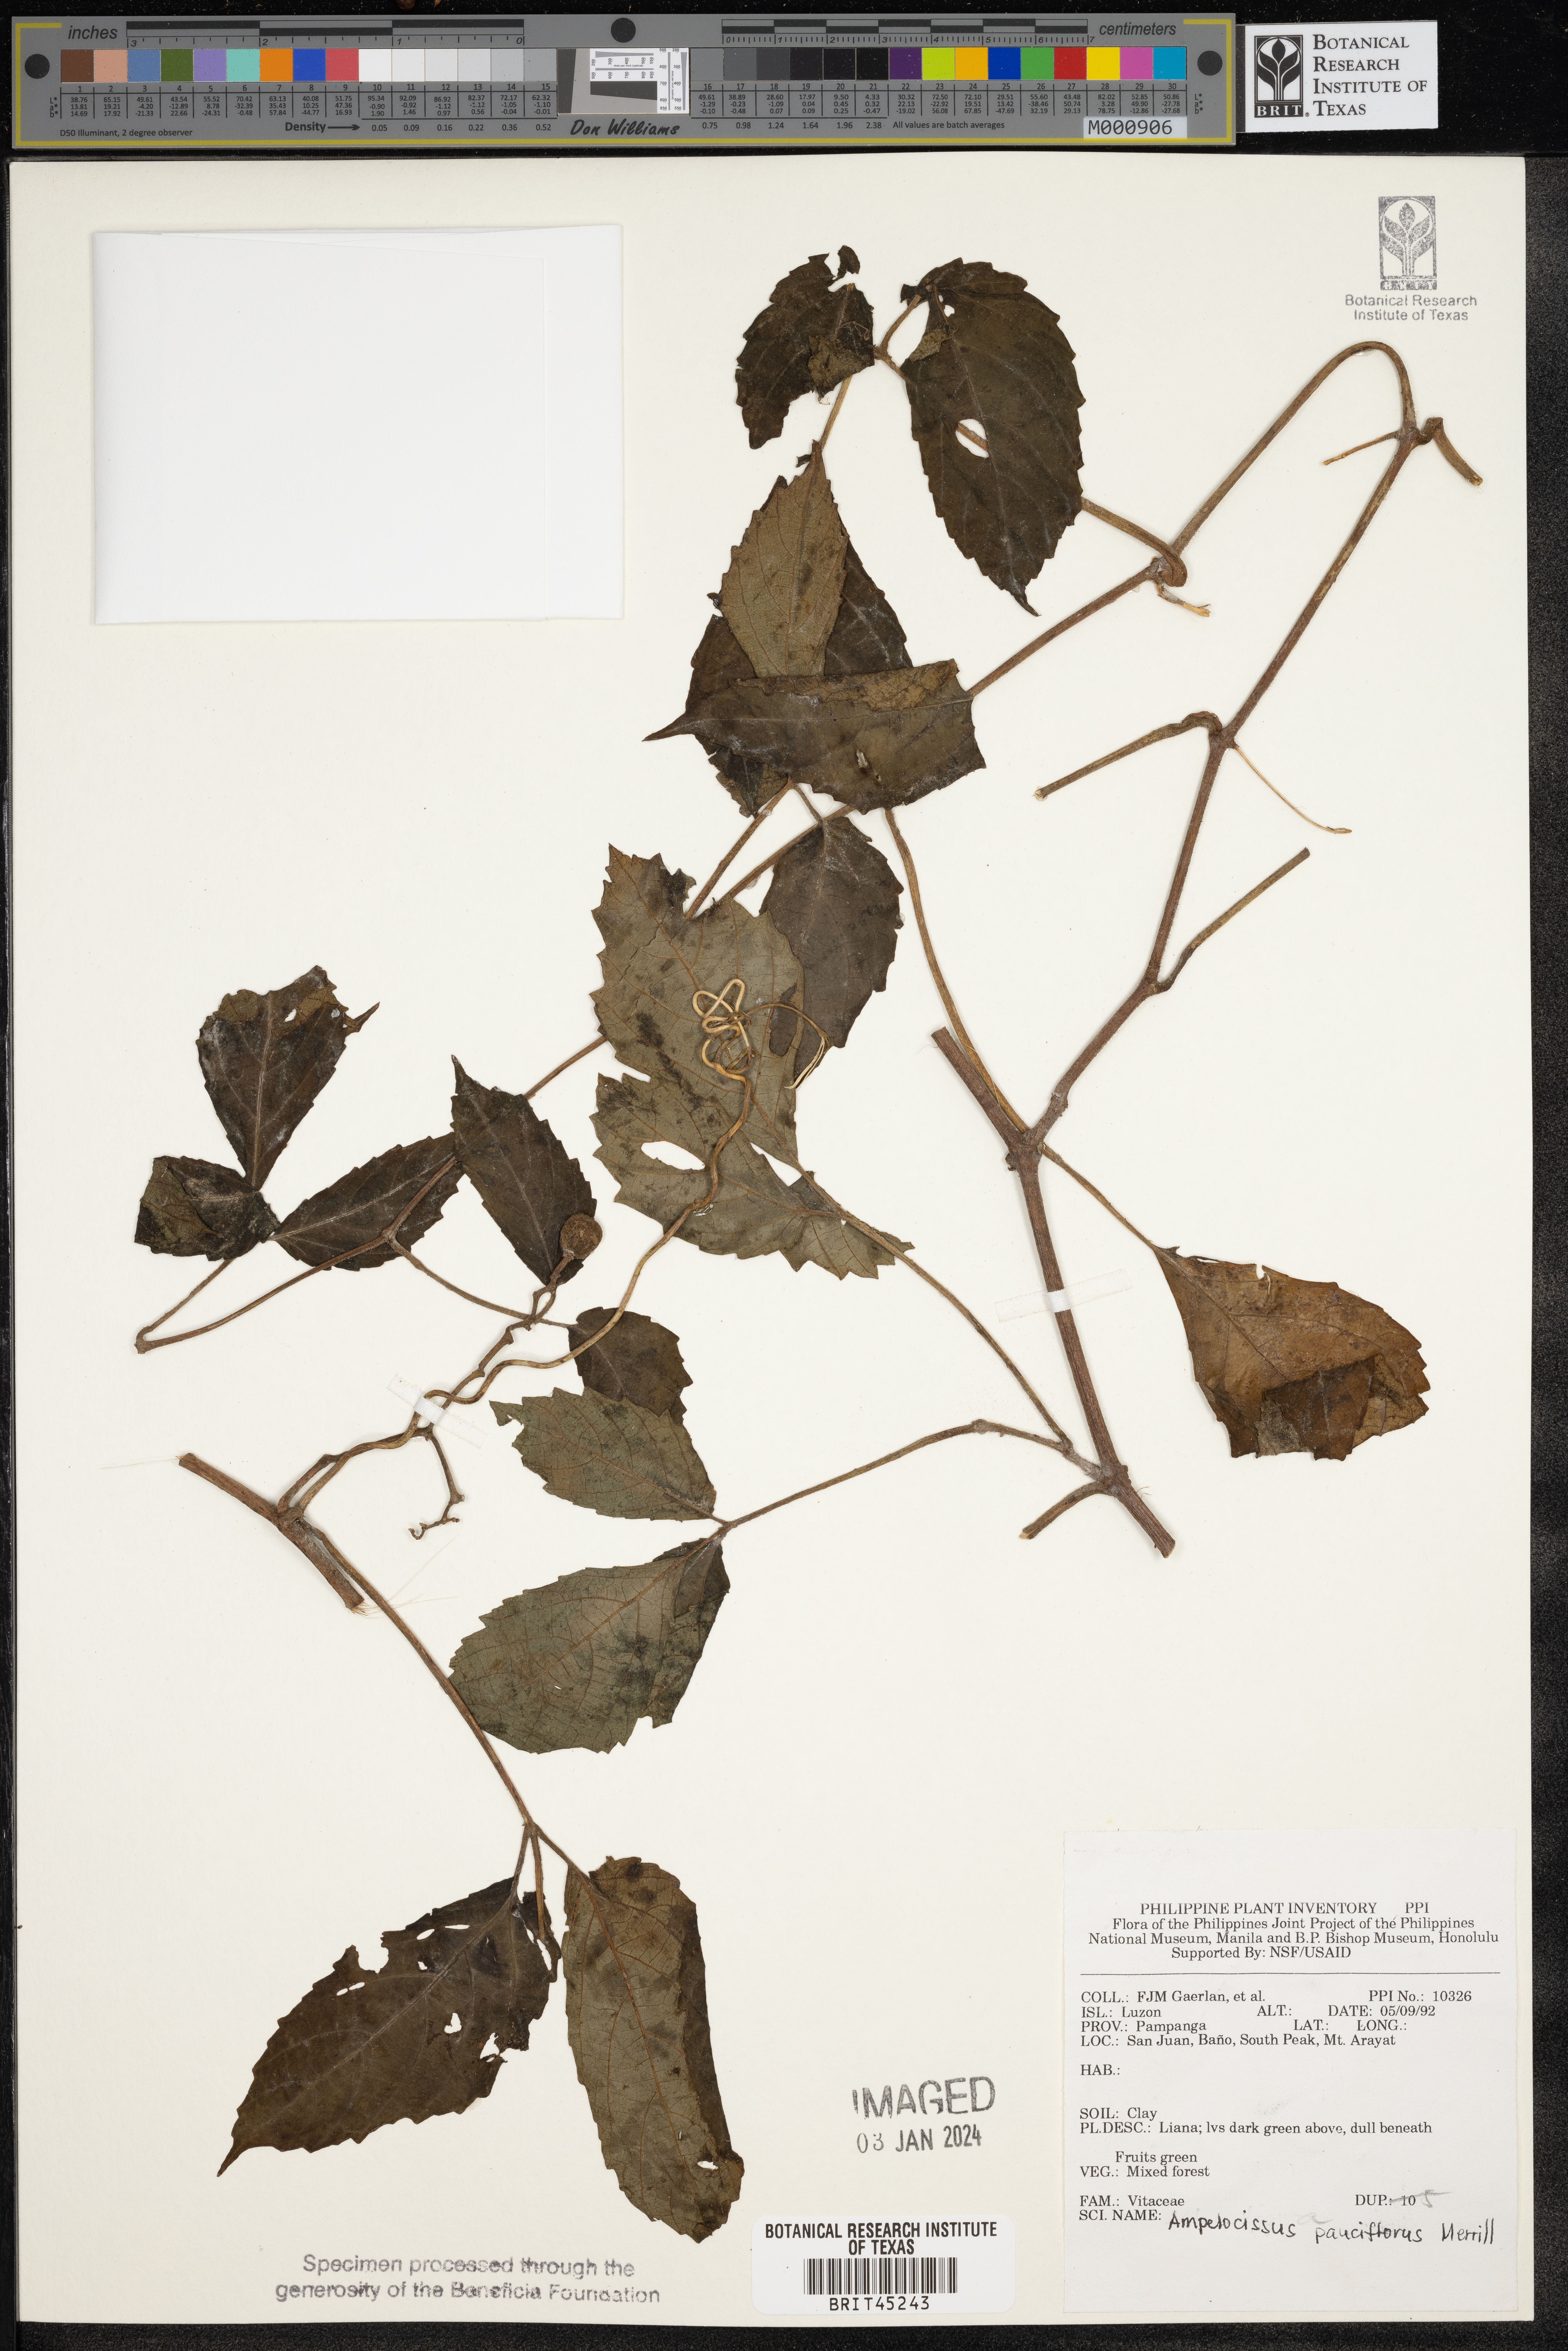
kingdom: Plantae
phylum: Tracheophyta
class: Magnoliopsida
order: Vitales
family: Vitaceae
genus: Ampelocissus
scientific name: Ampelocissus pauciflora
